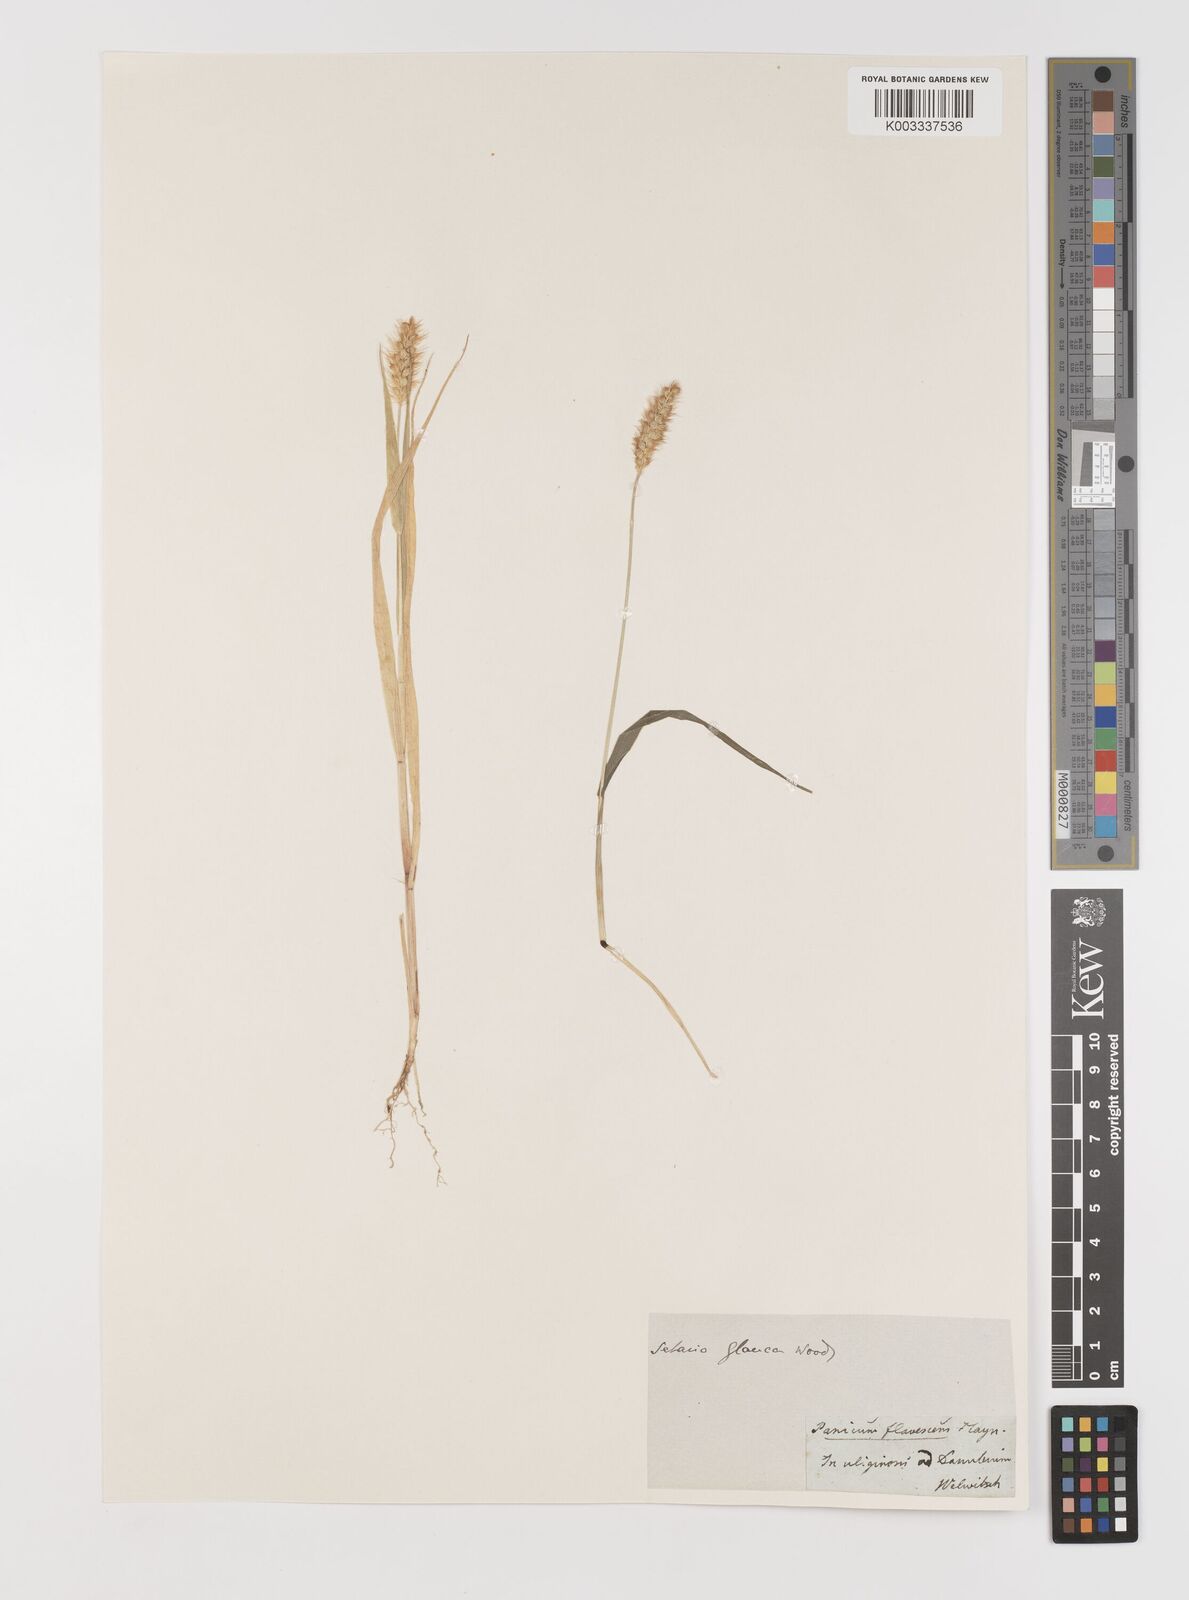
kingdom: Plantae
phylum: Tracheophyta
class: Liliopsida
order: Poales
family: Poaceae
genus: Setaria
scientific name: Setaria pumila
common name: Yellow bristle-grass
